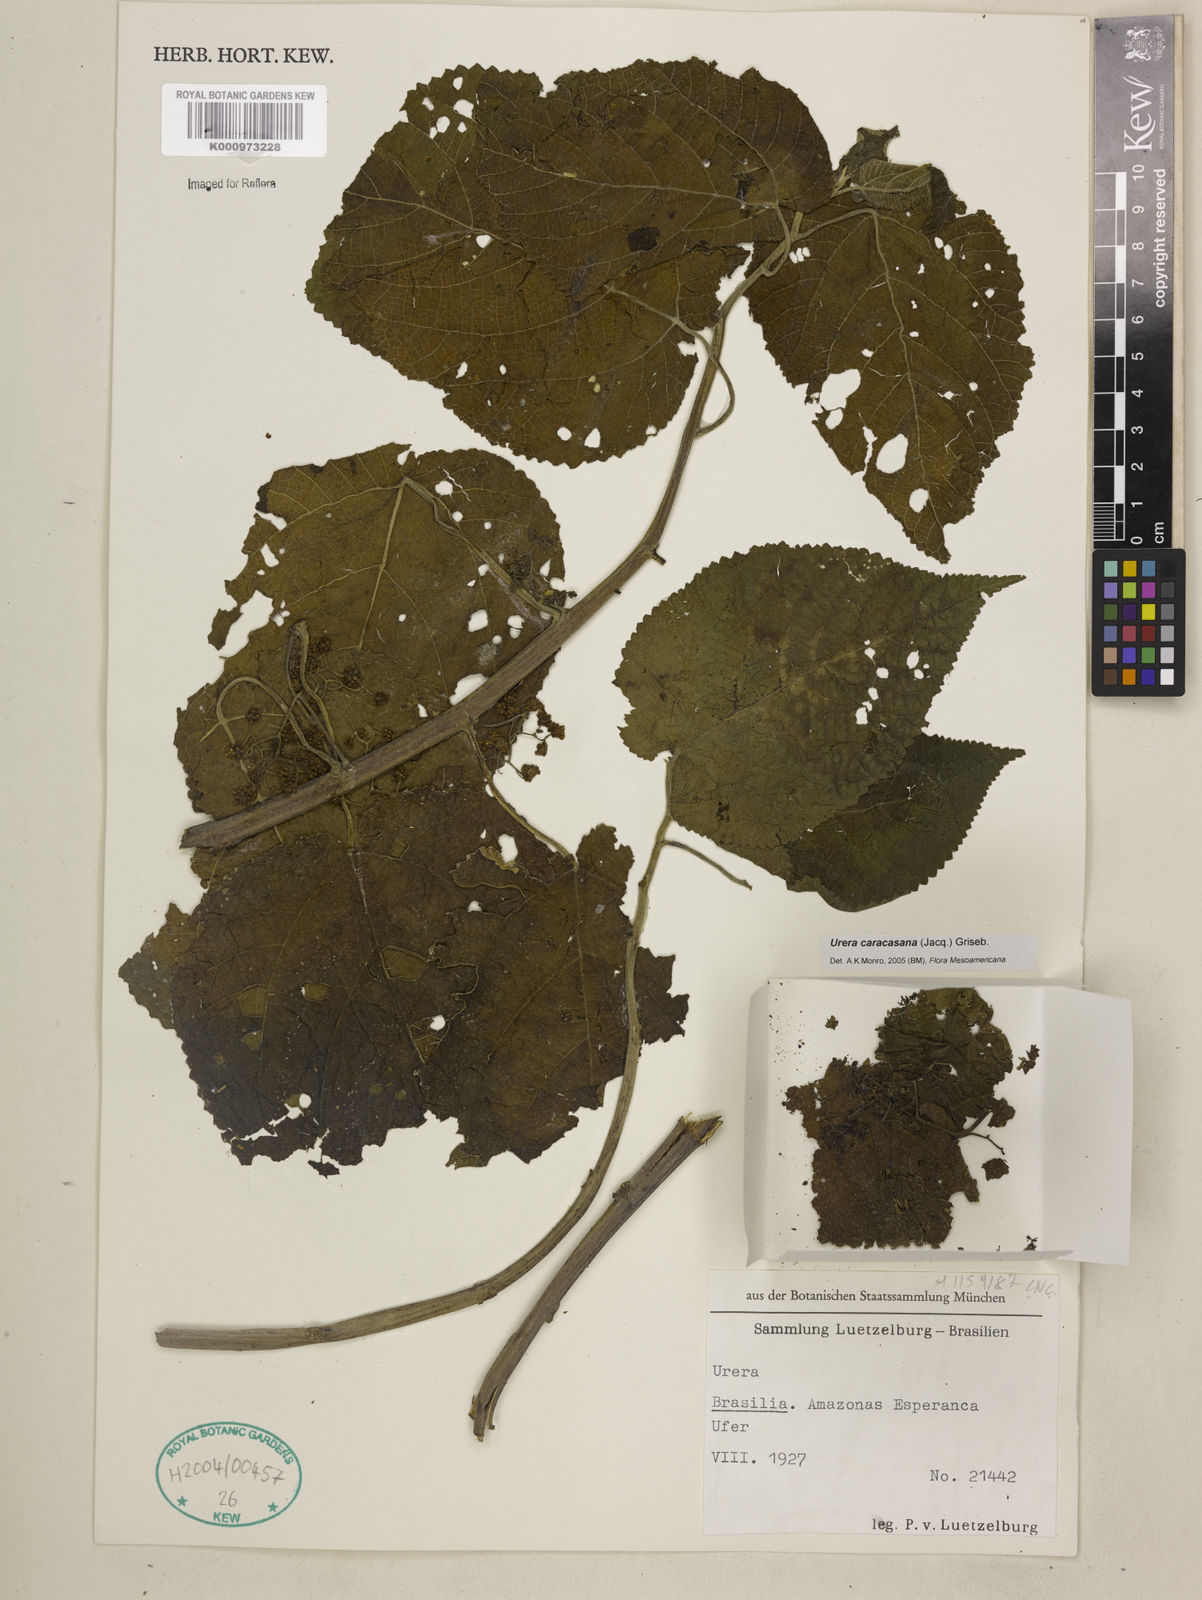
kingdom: Plantae
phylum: Tracheophyta
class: Magnoliopsida
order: Rosales
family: Urticaceae
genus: Urera
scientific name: Urera caracasana
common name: Flameberry
